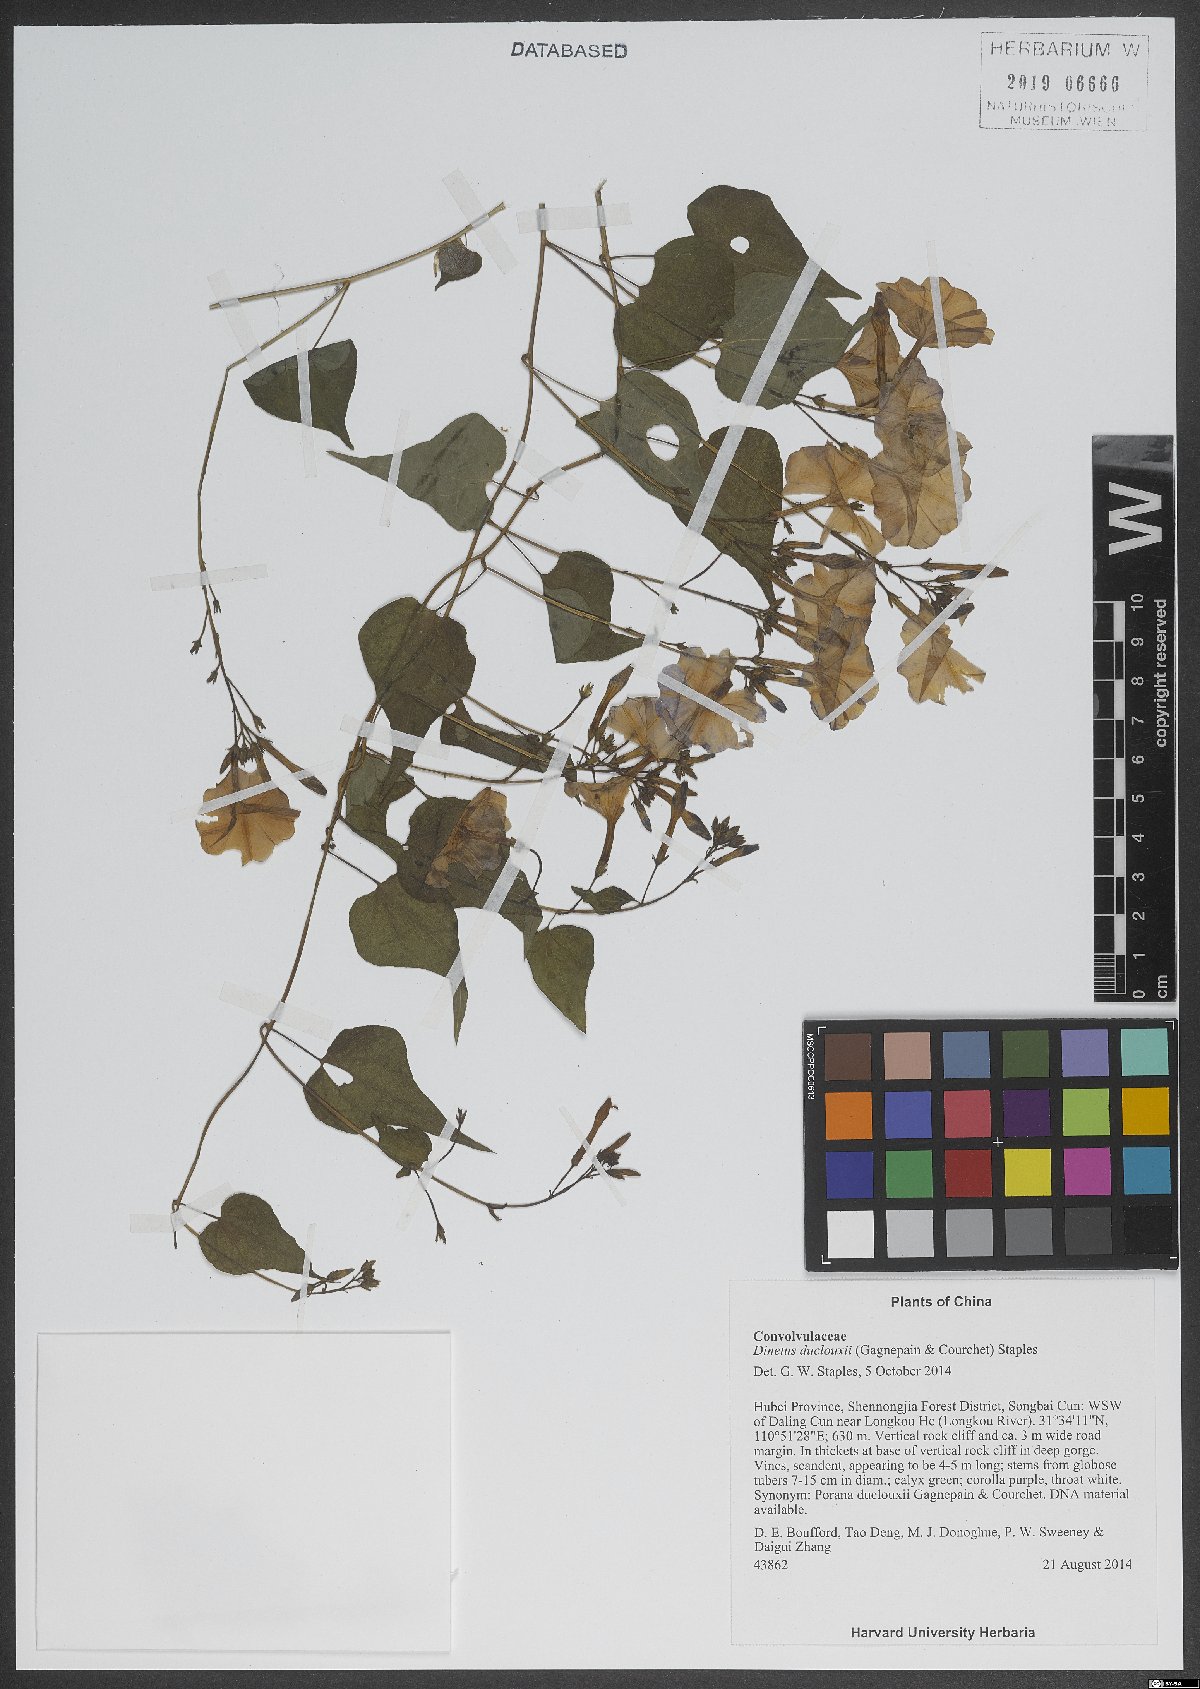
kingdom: Plantae
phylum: Tracheophyta
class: Magnoliopsida
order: Solanales
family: Convolvulaceae
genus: Dinetus
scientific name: Dinetus duclouxii
